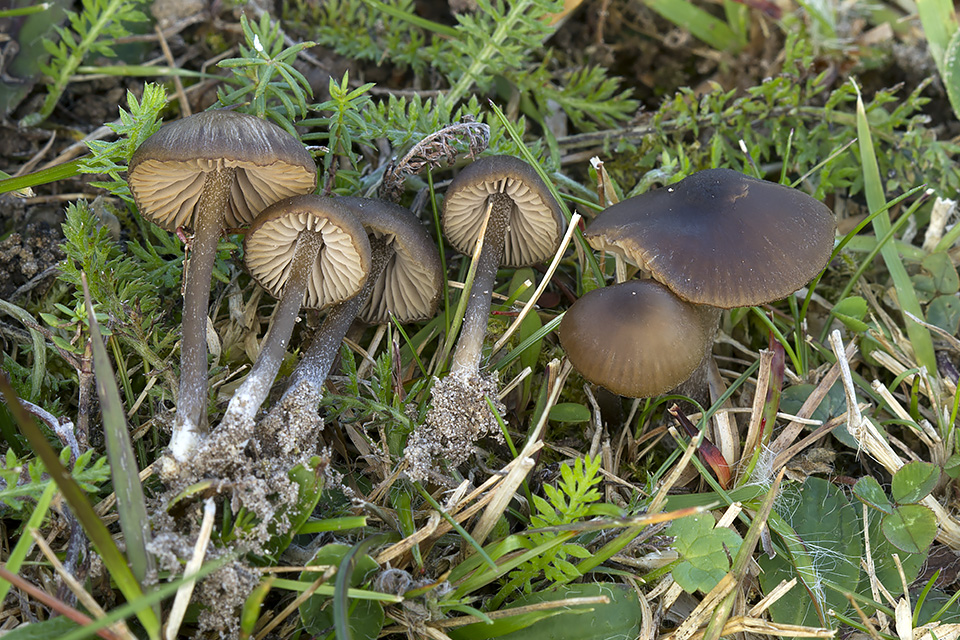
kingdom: Fungi
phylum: Basidiomycota
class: Agaricomycetes
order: Agaricales
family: Entolomataceae
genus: Entoloma
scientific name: Entoloma clandestinum
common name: tykbladet rødblad
